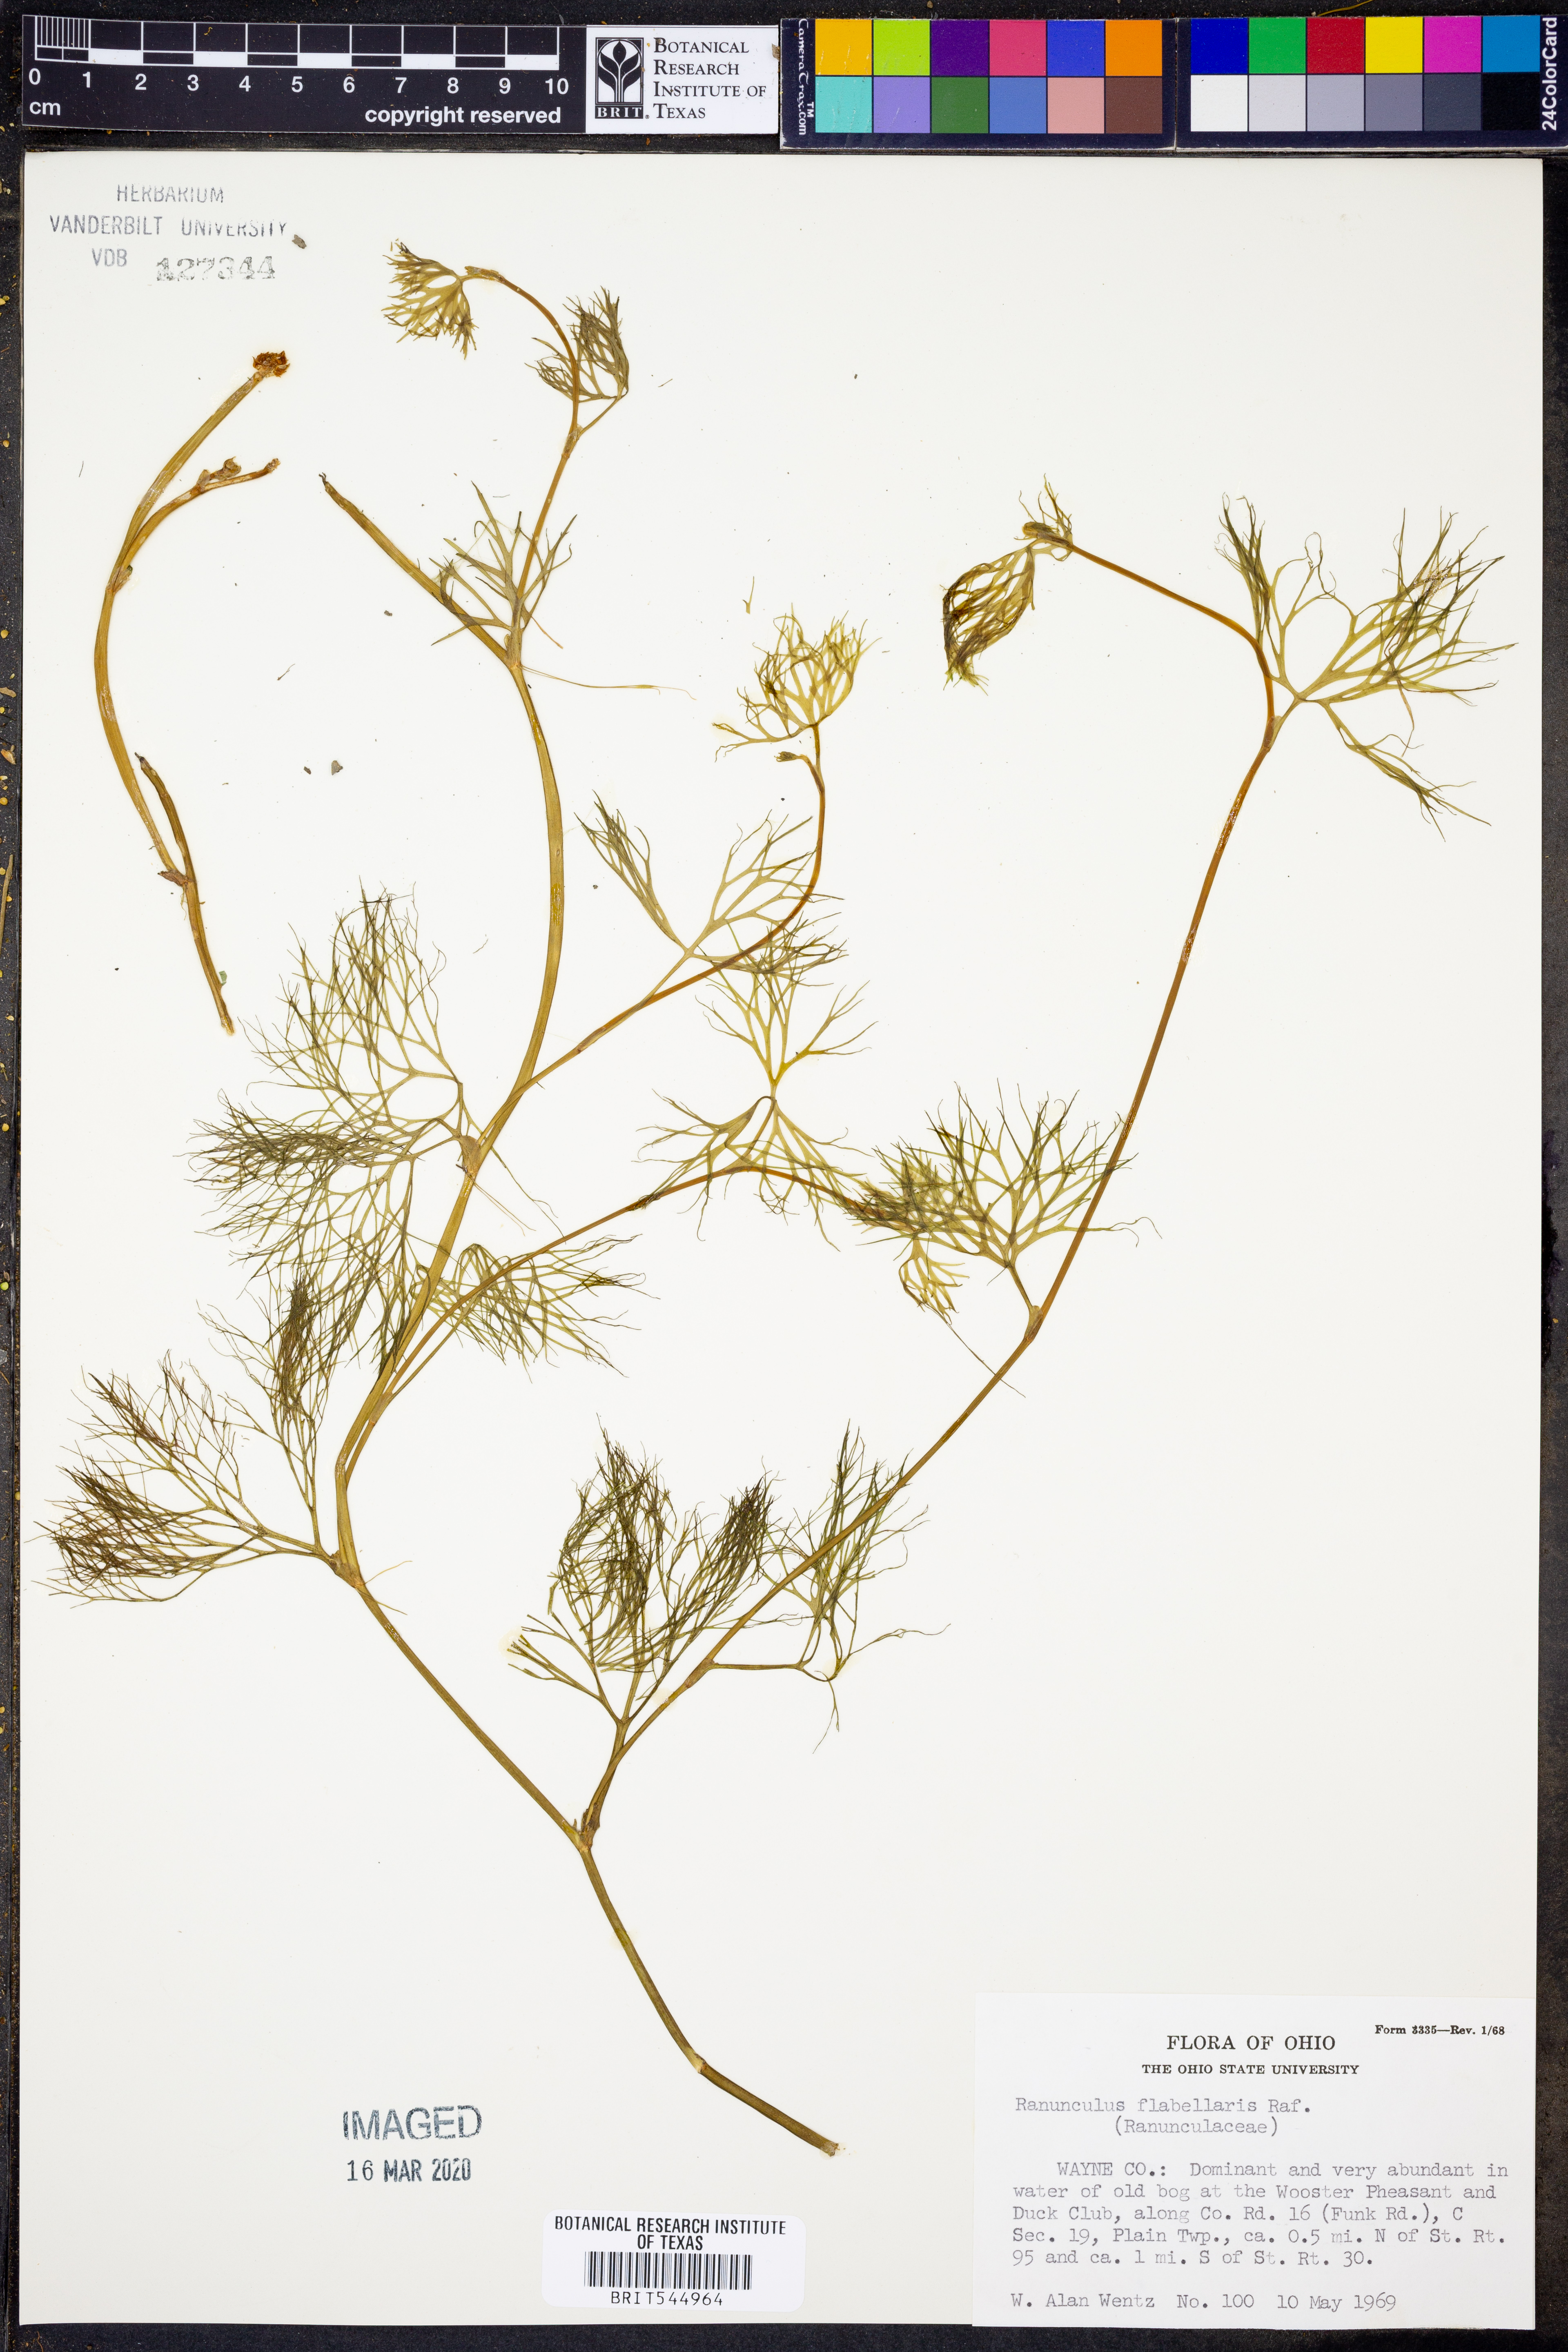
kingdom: Plantae
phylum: Tracheophyta
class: Magnoliopsida
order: Ranunculales
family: Ranunculaceae
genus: Ranunculus
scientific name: Ranunculus flabellaris
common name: Yellow water-crowfoot
